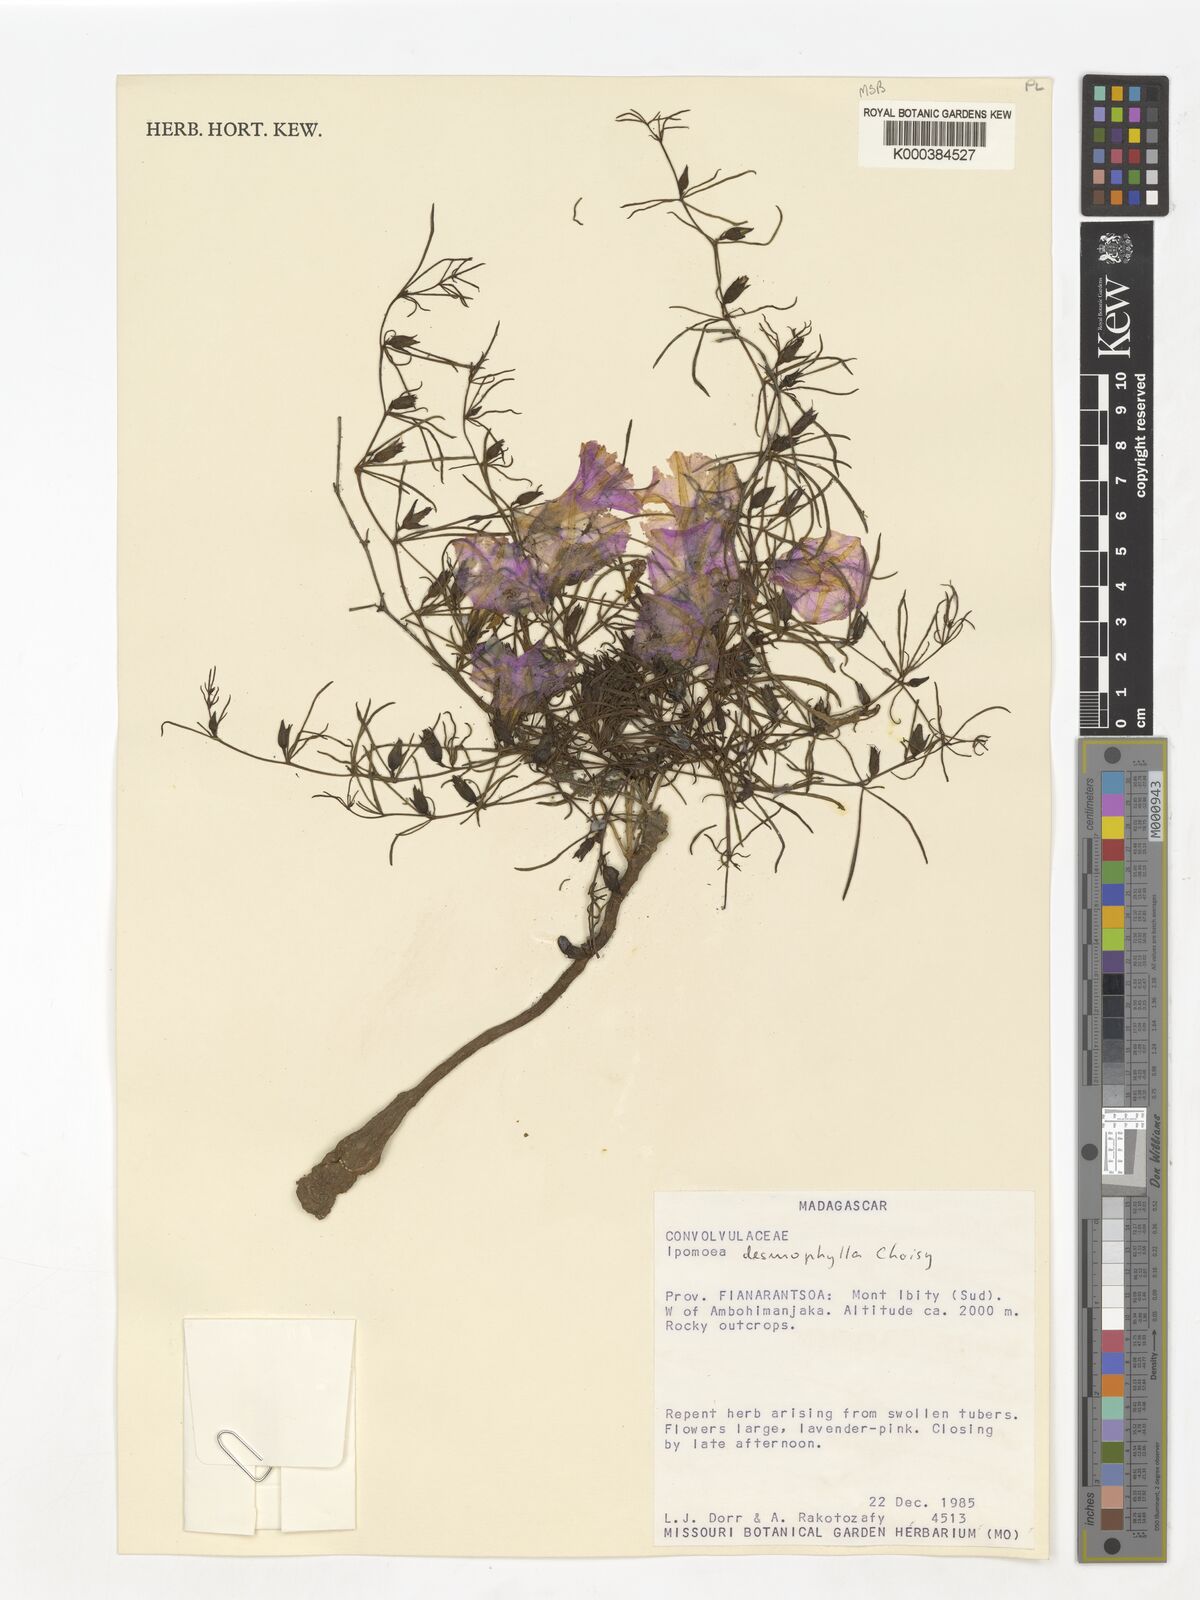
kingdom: Plantae
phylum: Tracheophyta
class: Magnoliopsida
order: Solanales
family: Convolvulaceae
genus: Ipomoea
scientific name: Ipomoea desmophylla
